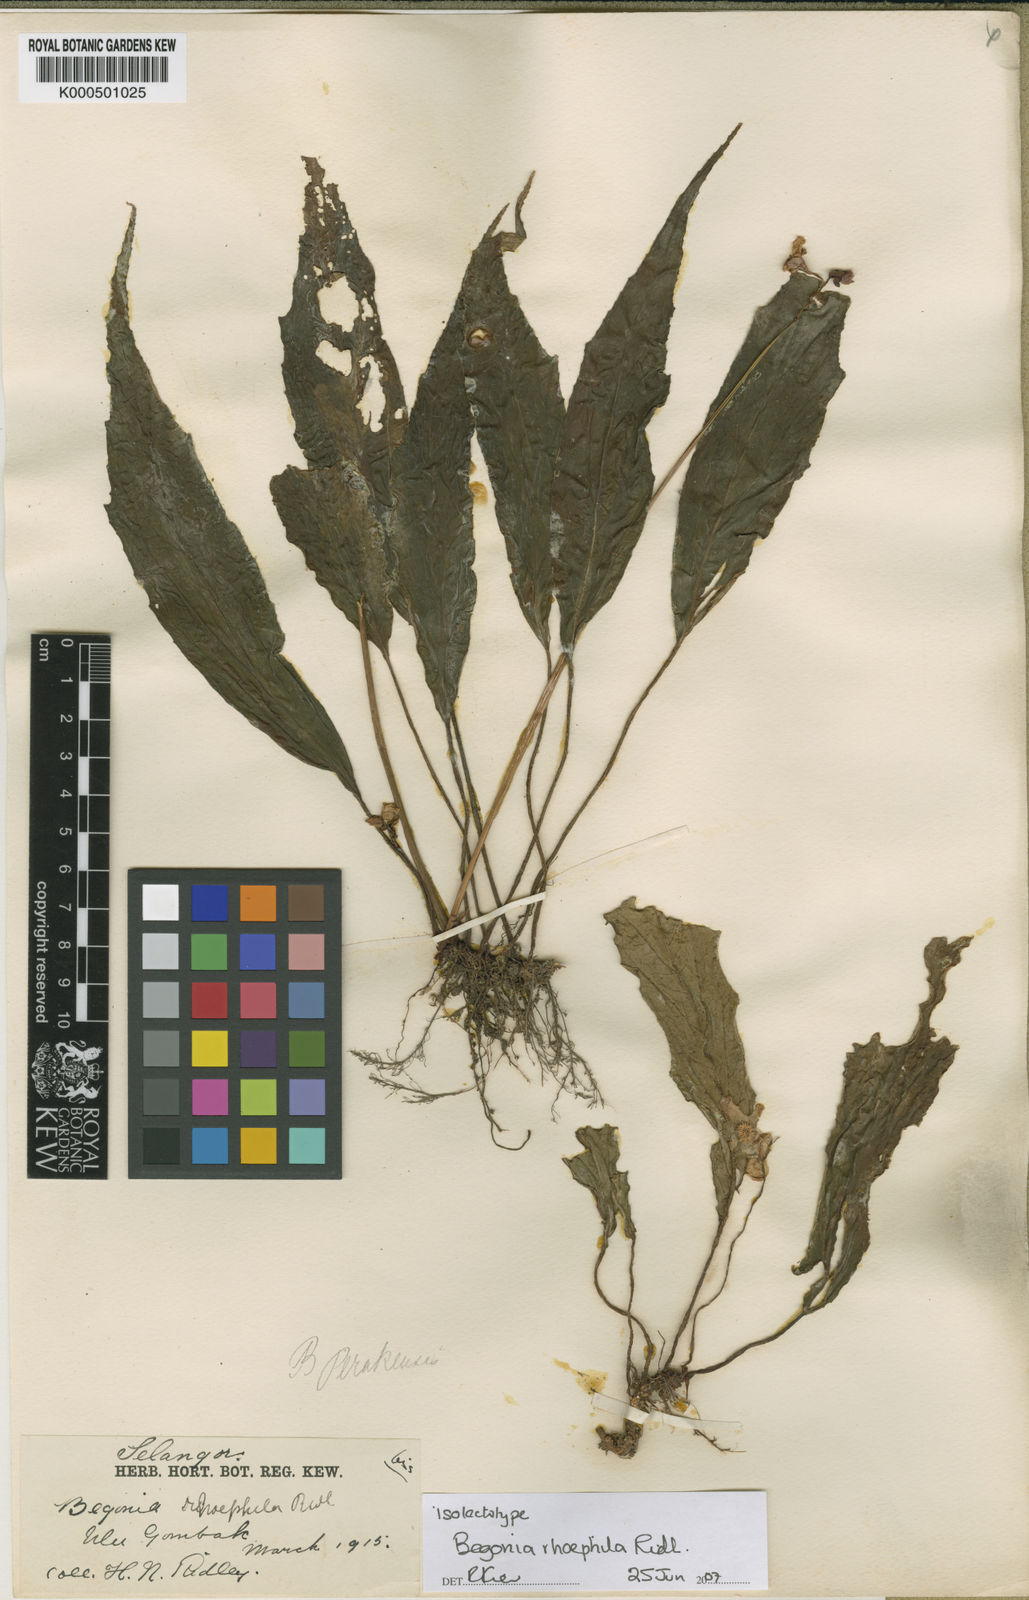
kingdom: Plantae
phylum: Tracheophyta
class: Magnoliopsida
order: Cucurbitales
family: Begoniaceae
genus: Begonia
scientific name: Begonia rhoephila
